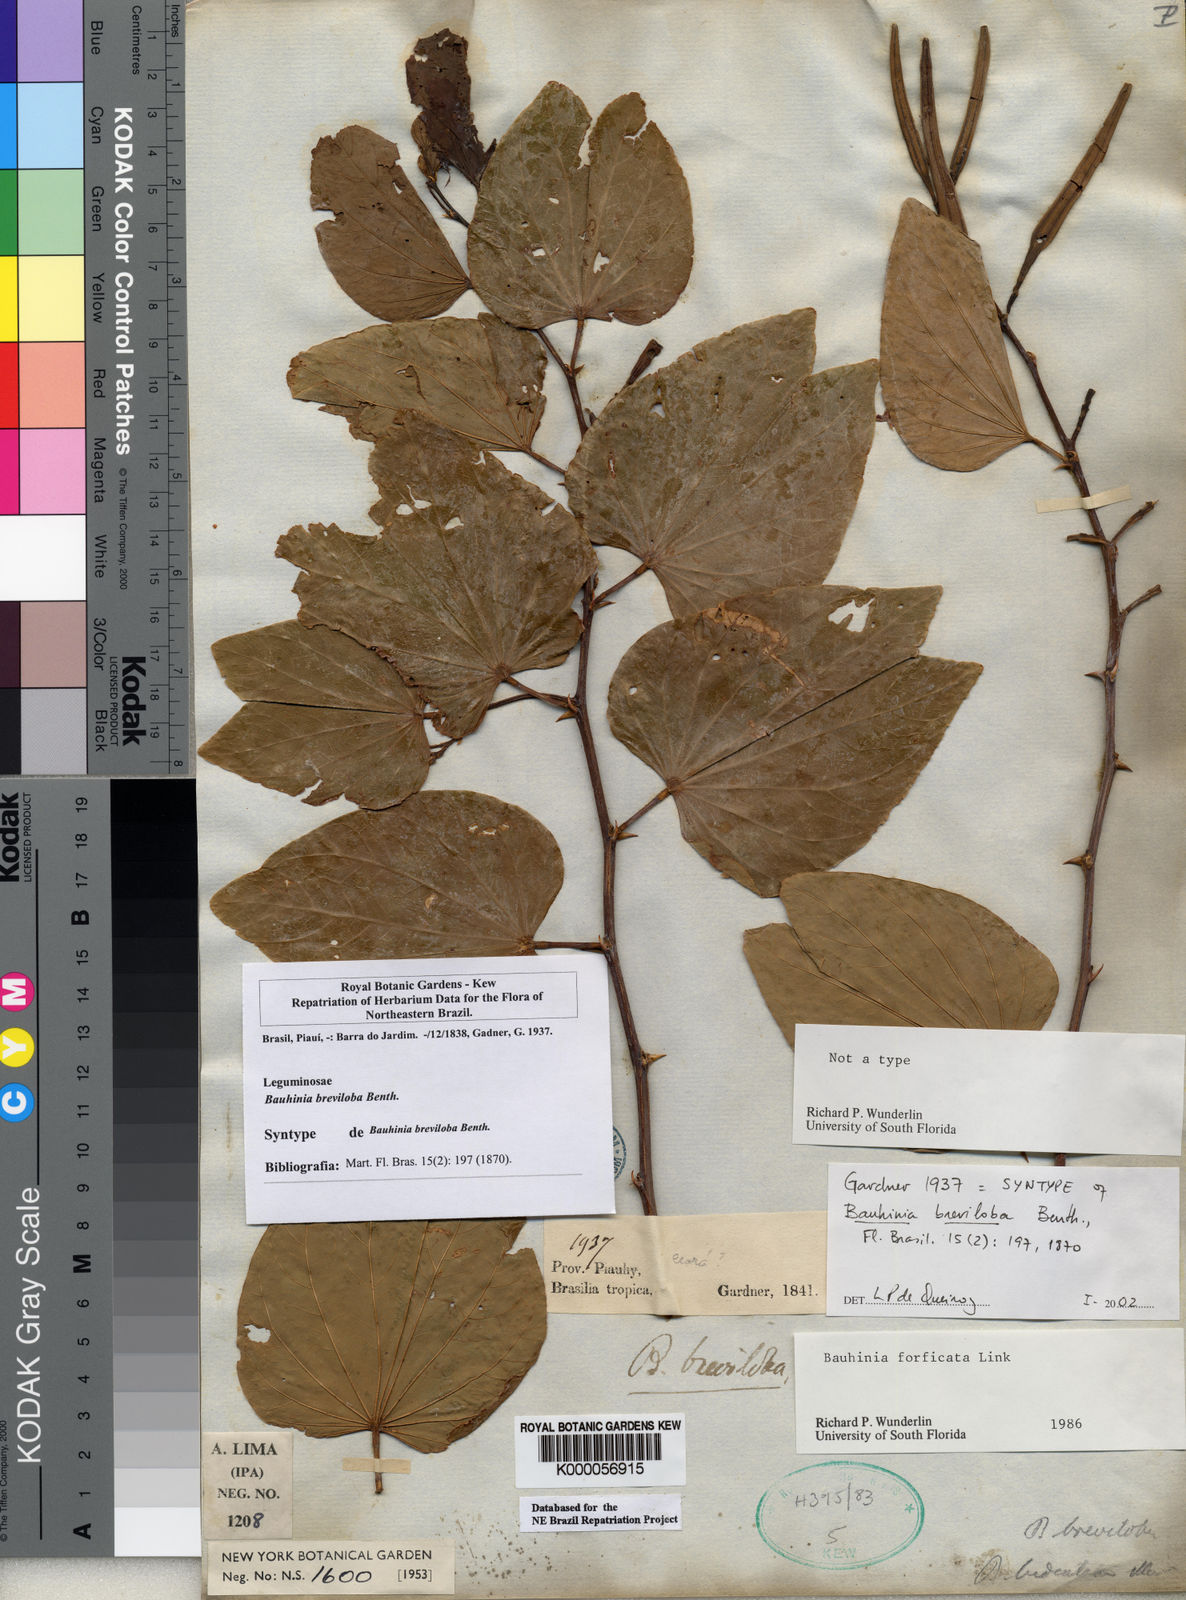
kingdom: Plantae
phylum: Tracheophyta
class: Magnoliopsida
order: Fabales
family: Fabaceae
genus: Bauhinia
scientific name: Bauhinia forficata
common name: Orchid tree
